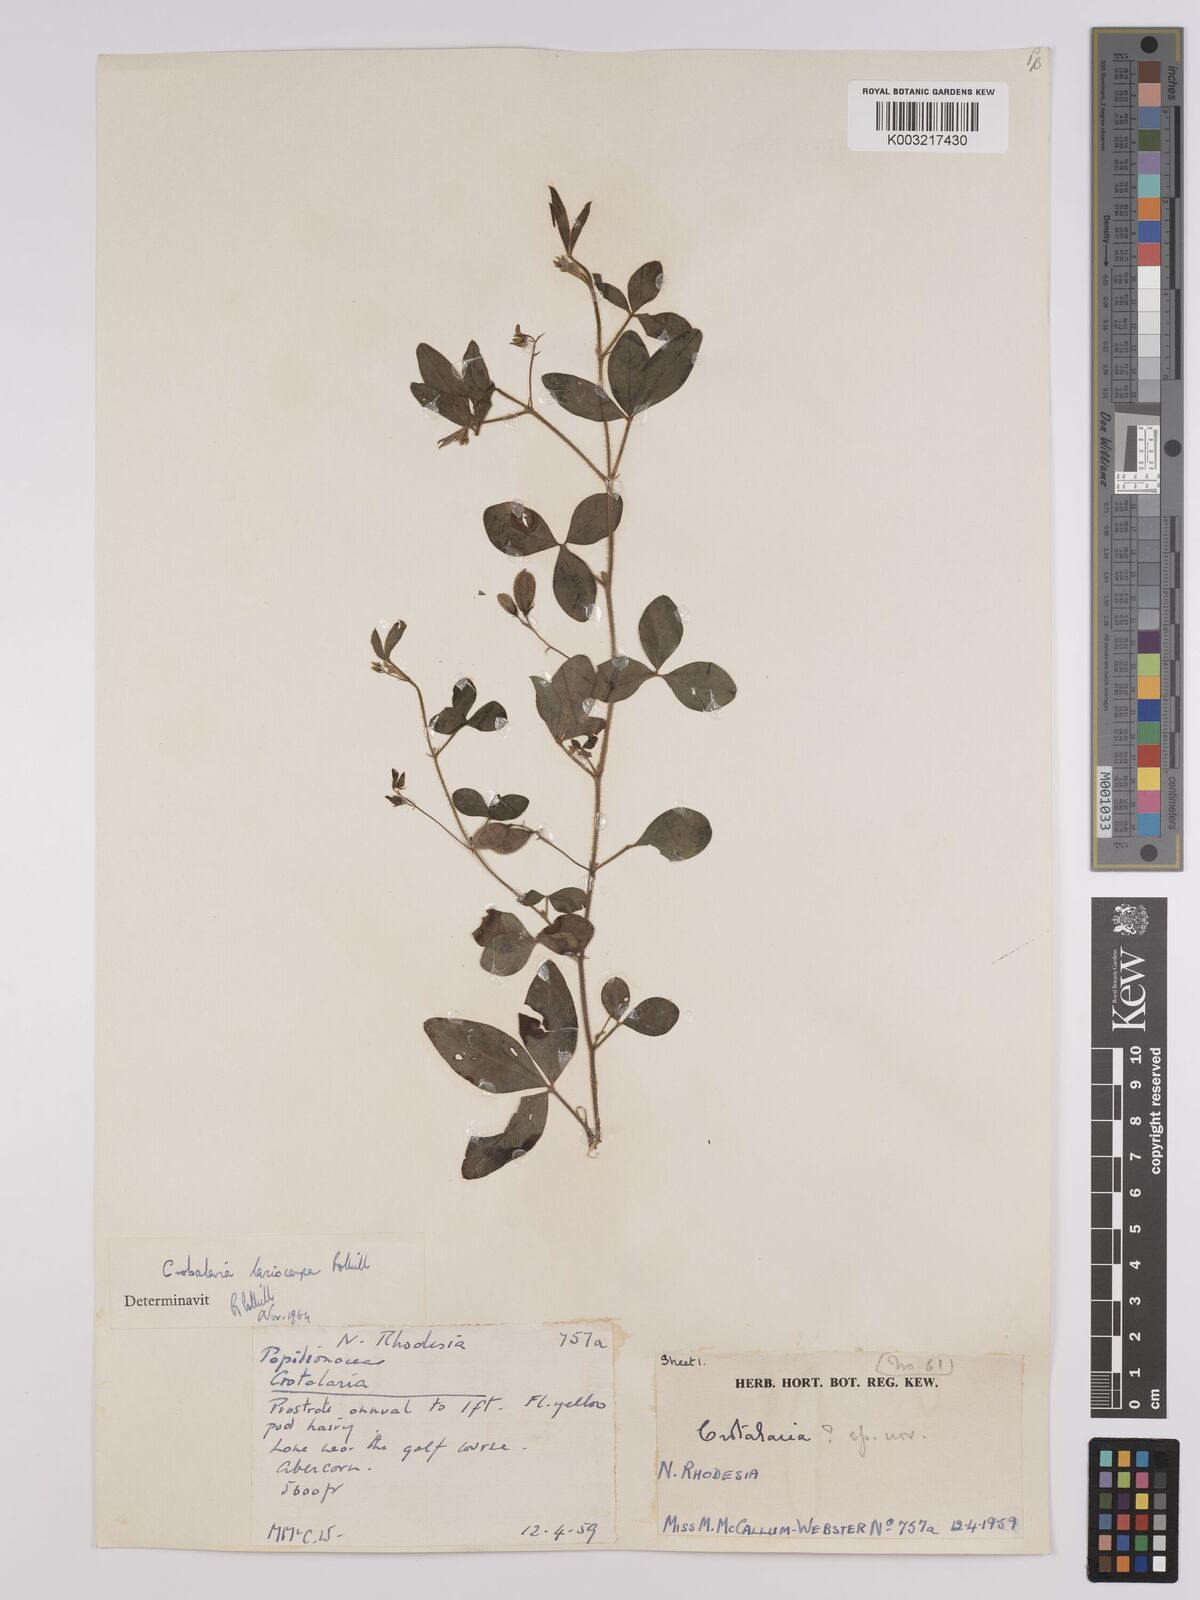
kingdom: Plantae
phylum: Tracheophyta
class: Magnoliopsida
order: Fabales
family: Fabaceae
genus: Crotalaria
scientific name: Crotalaria lasiocarpa
